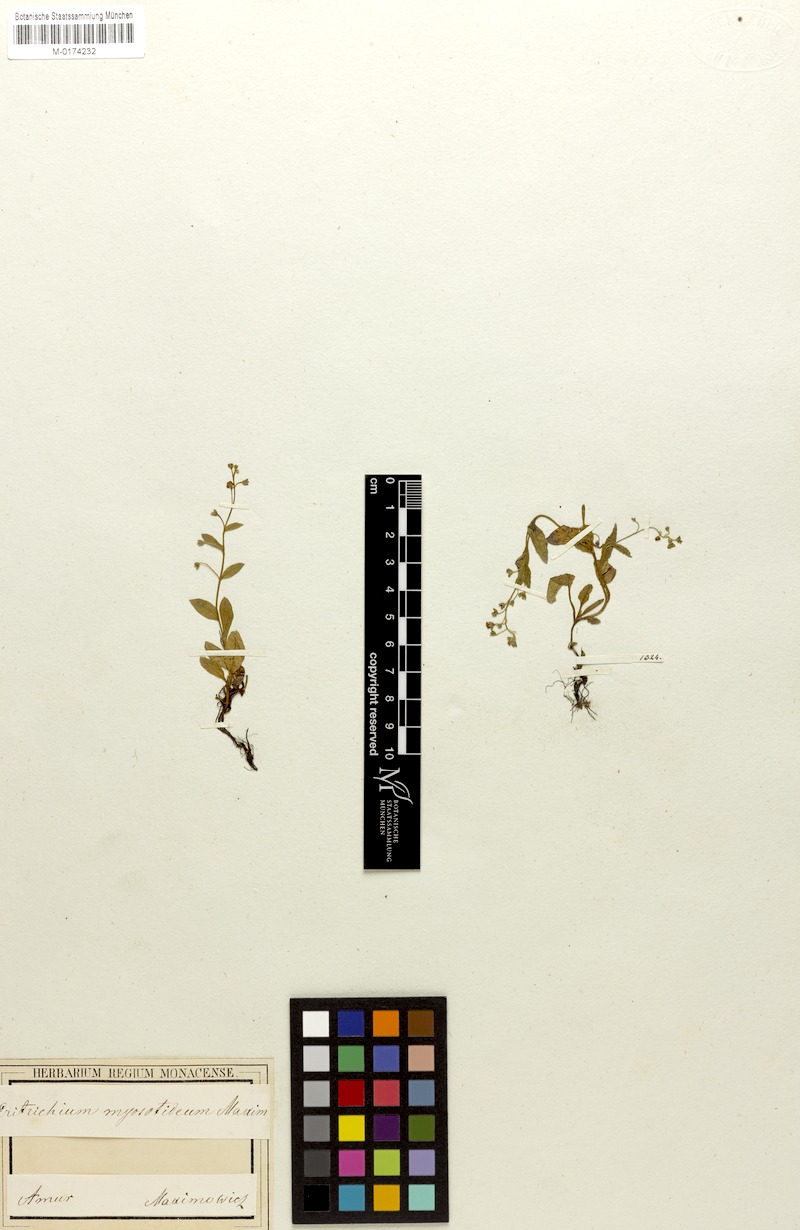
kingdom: Plantae
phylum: Tracheophyta
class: Magnoliopsida
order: Boraginales
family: Boraginaceae
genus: Trigonotis
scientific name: Trigonotis myosotidea
